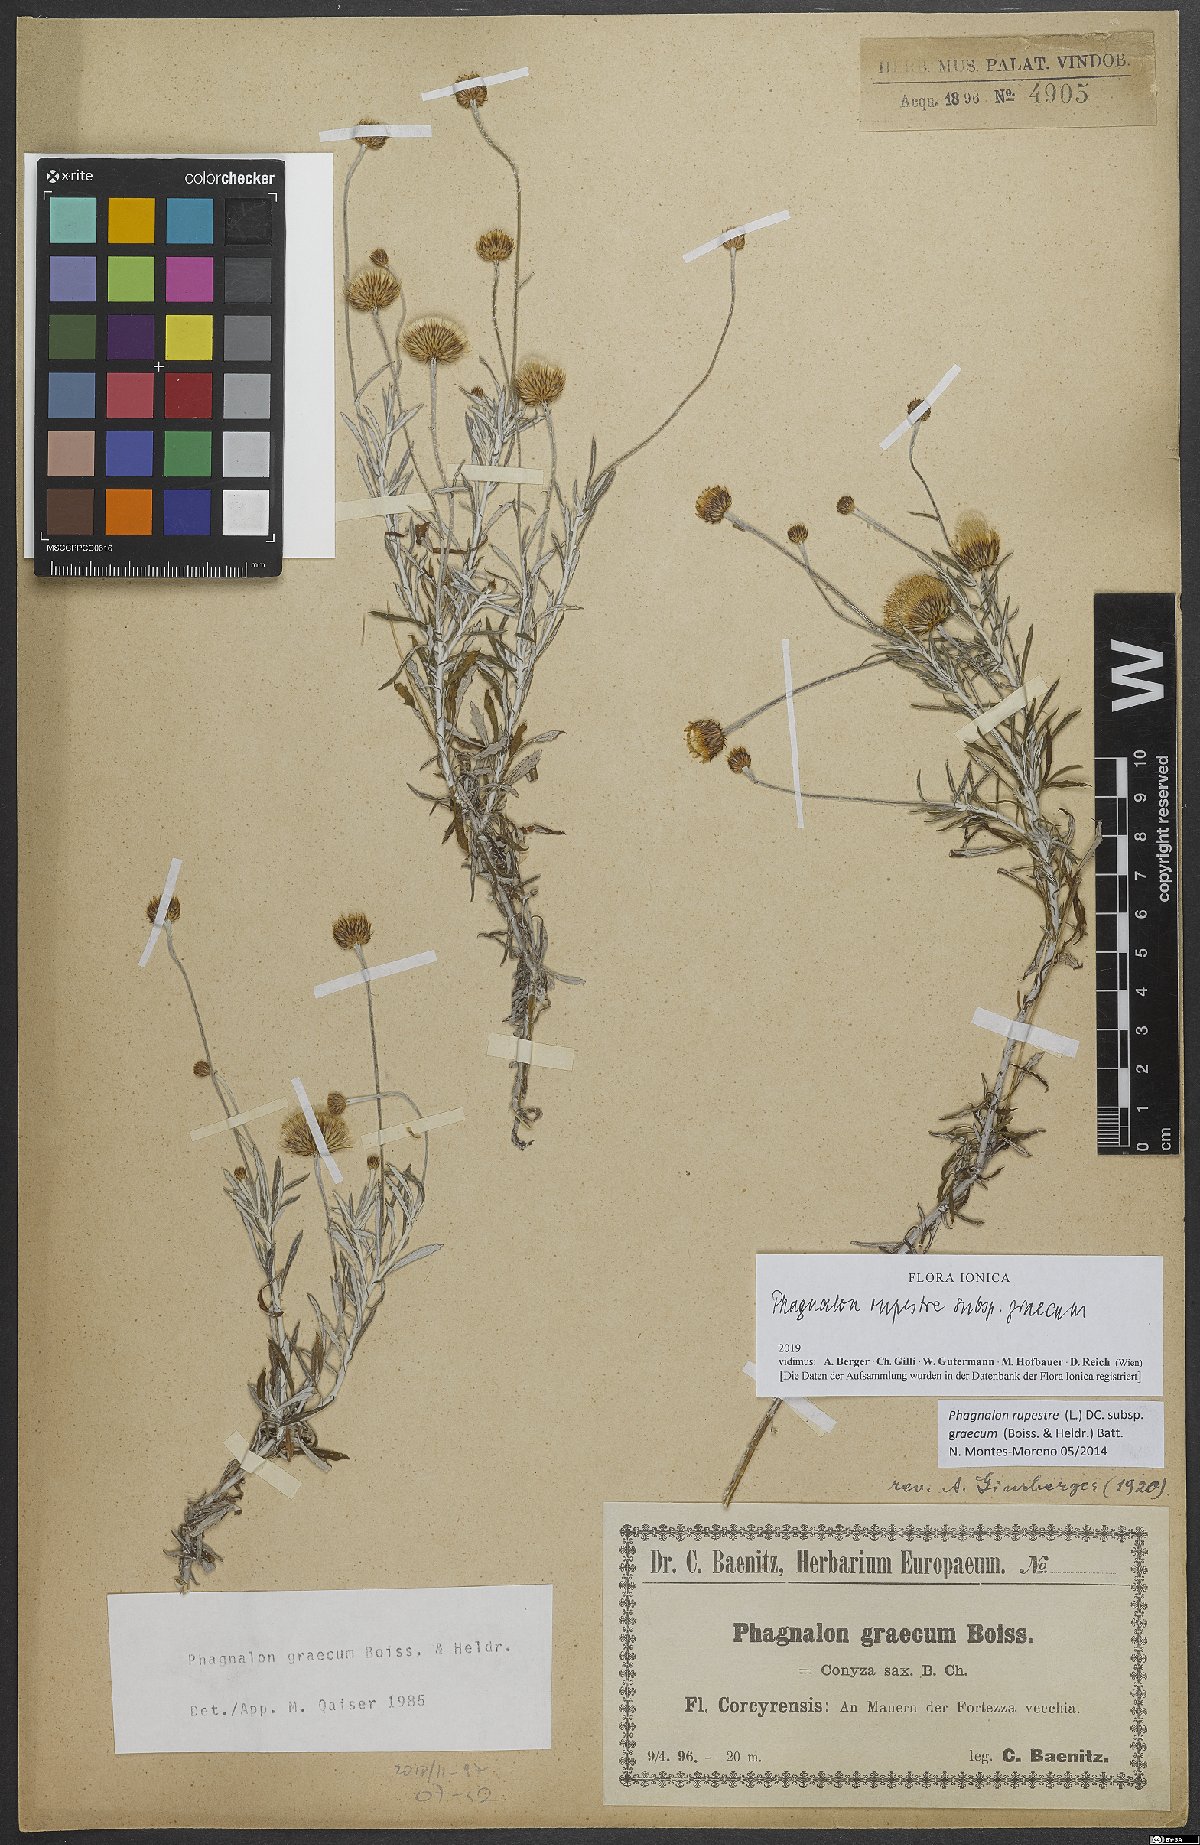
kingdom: Plantae
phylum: Tracheophyta
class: Magnoliopsida
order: Asterales
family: Asteraceae
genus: Phagnalon
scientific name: Phagnalon graecum
